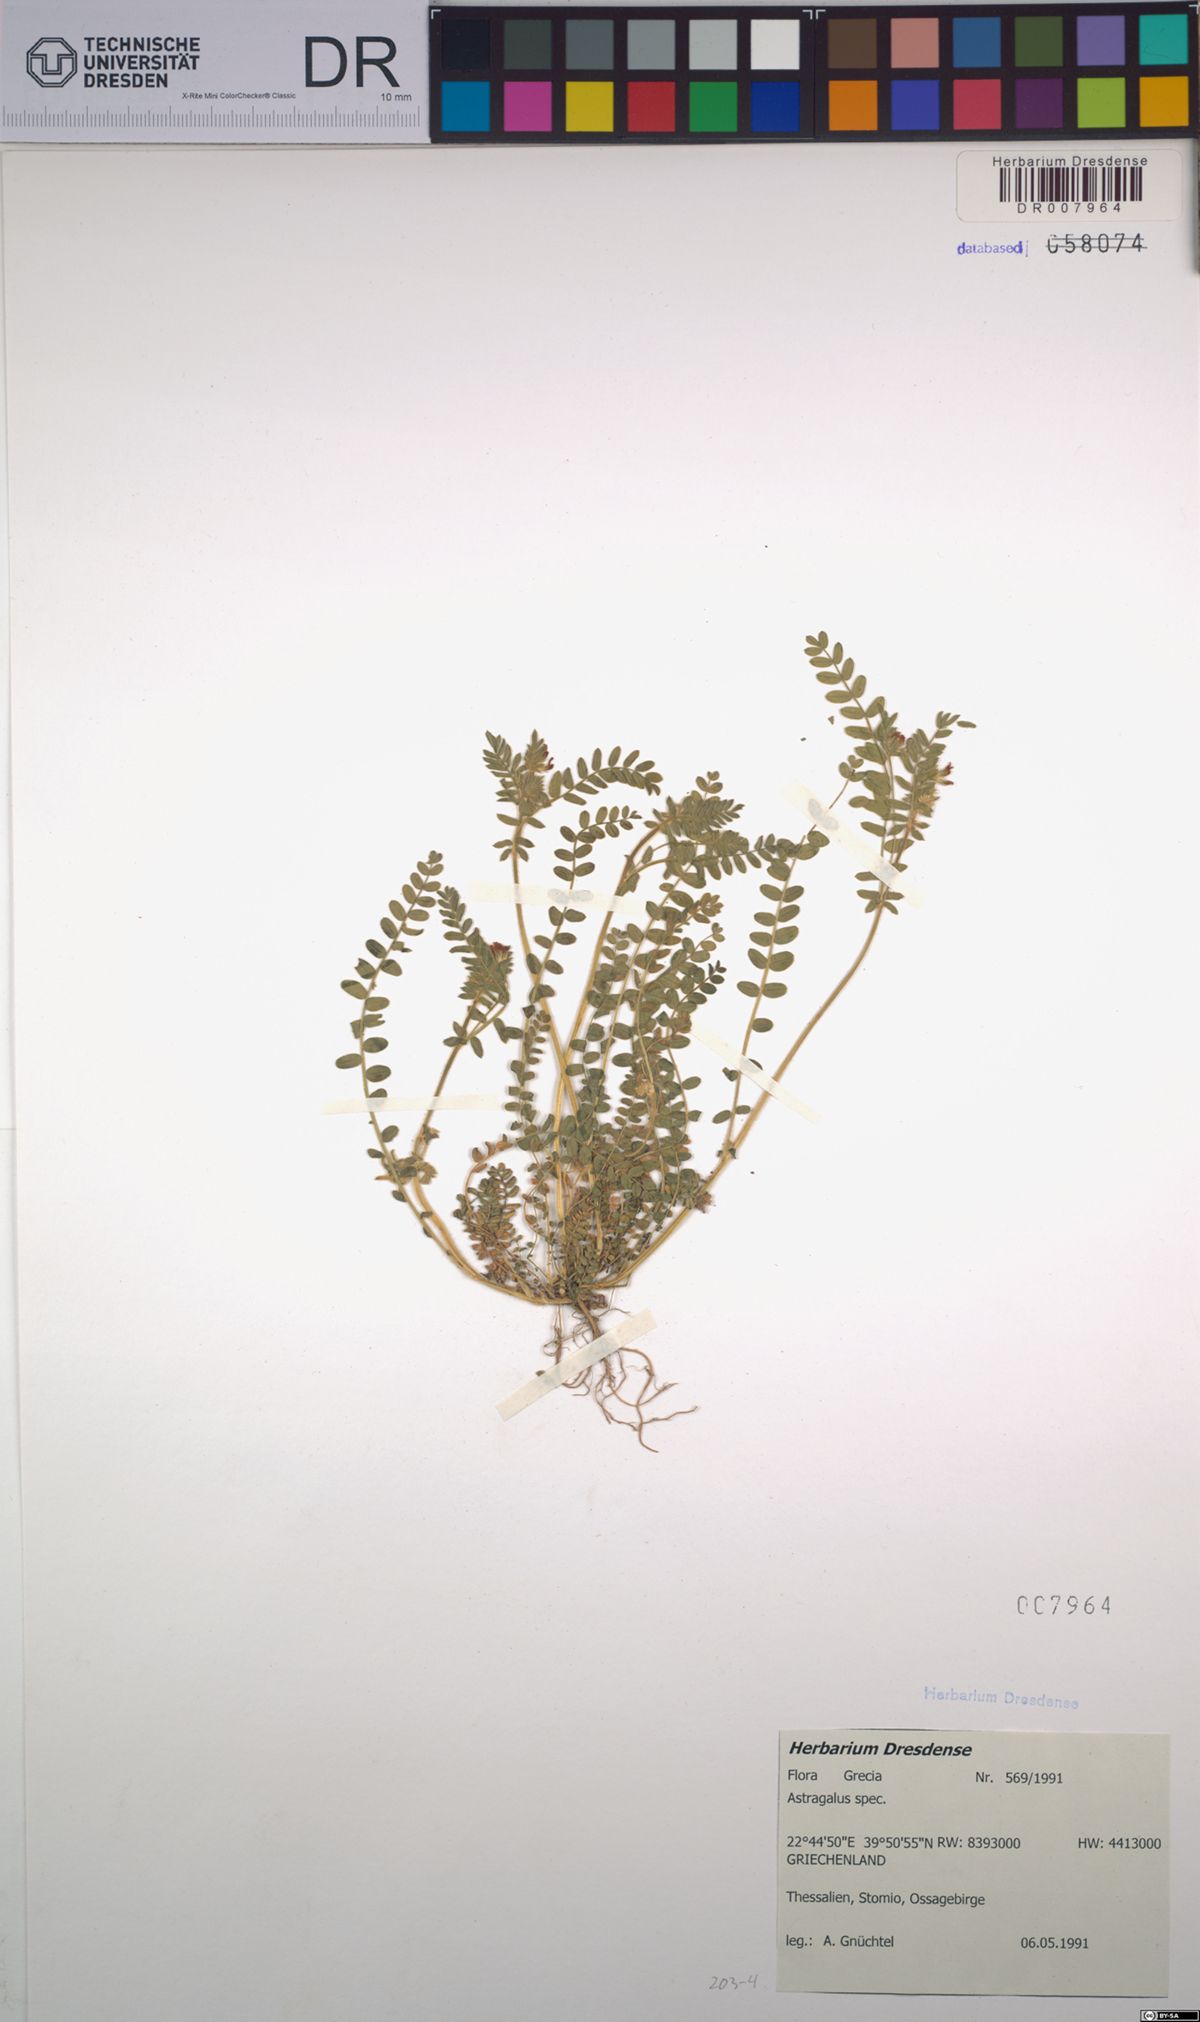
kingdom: Plantae
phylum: Tracheophyta
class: Magnoliopsida
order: Fabales
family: Fabaceae
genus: Astragalus
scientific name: Astragalus
